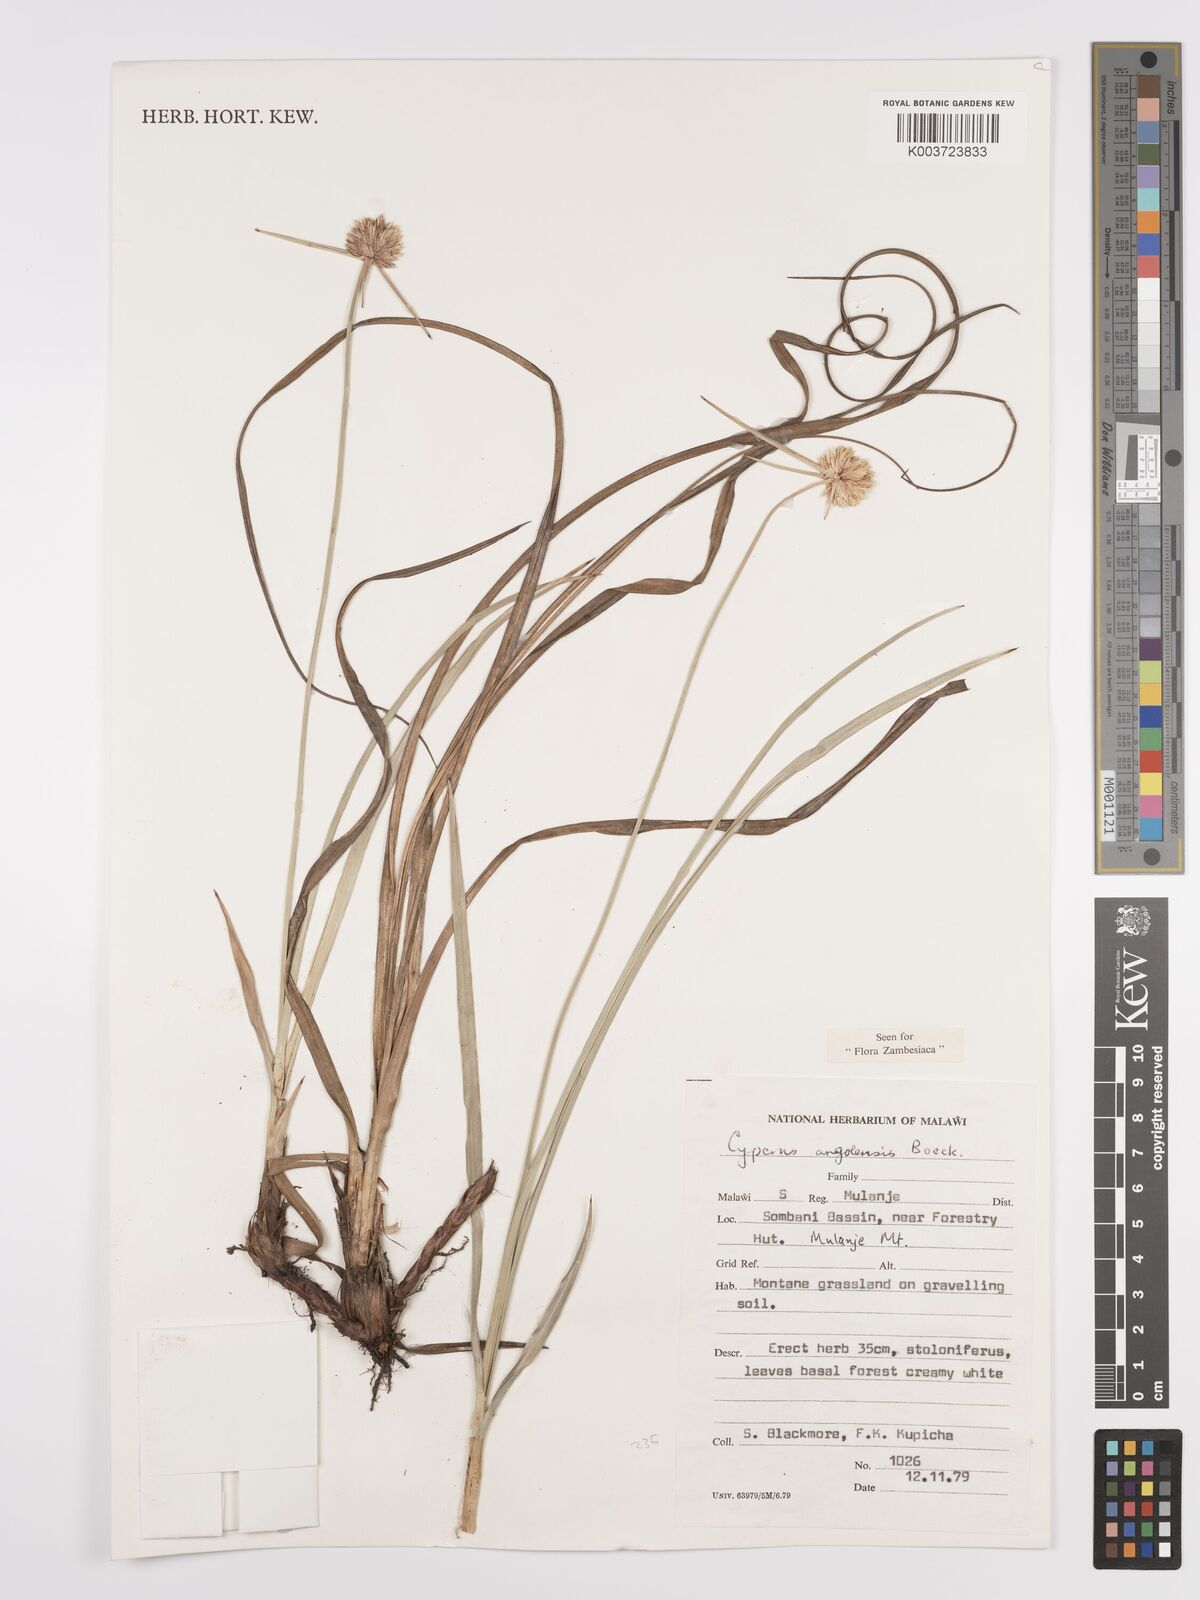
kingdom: Plantae
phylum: Tracheophyta
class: Liliopsida
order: Poales
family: Cyperaceae
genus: Cyperus
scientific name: Cyperus angolensis
